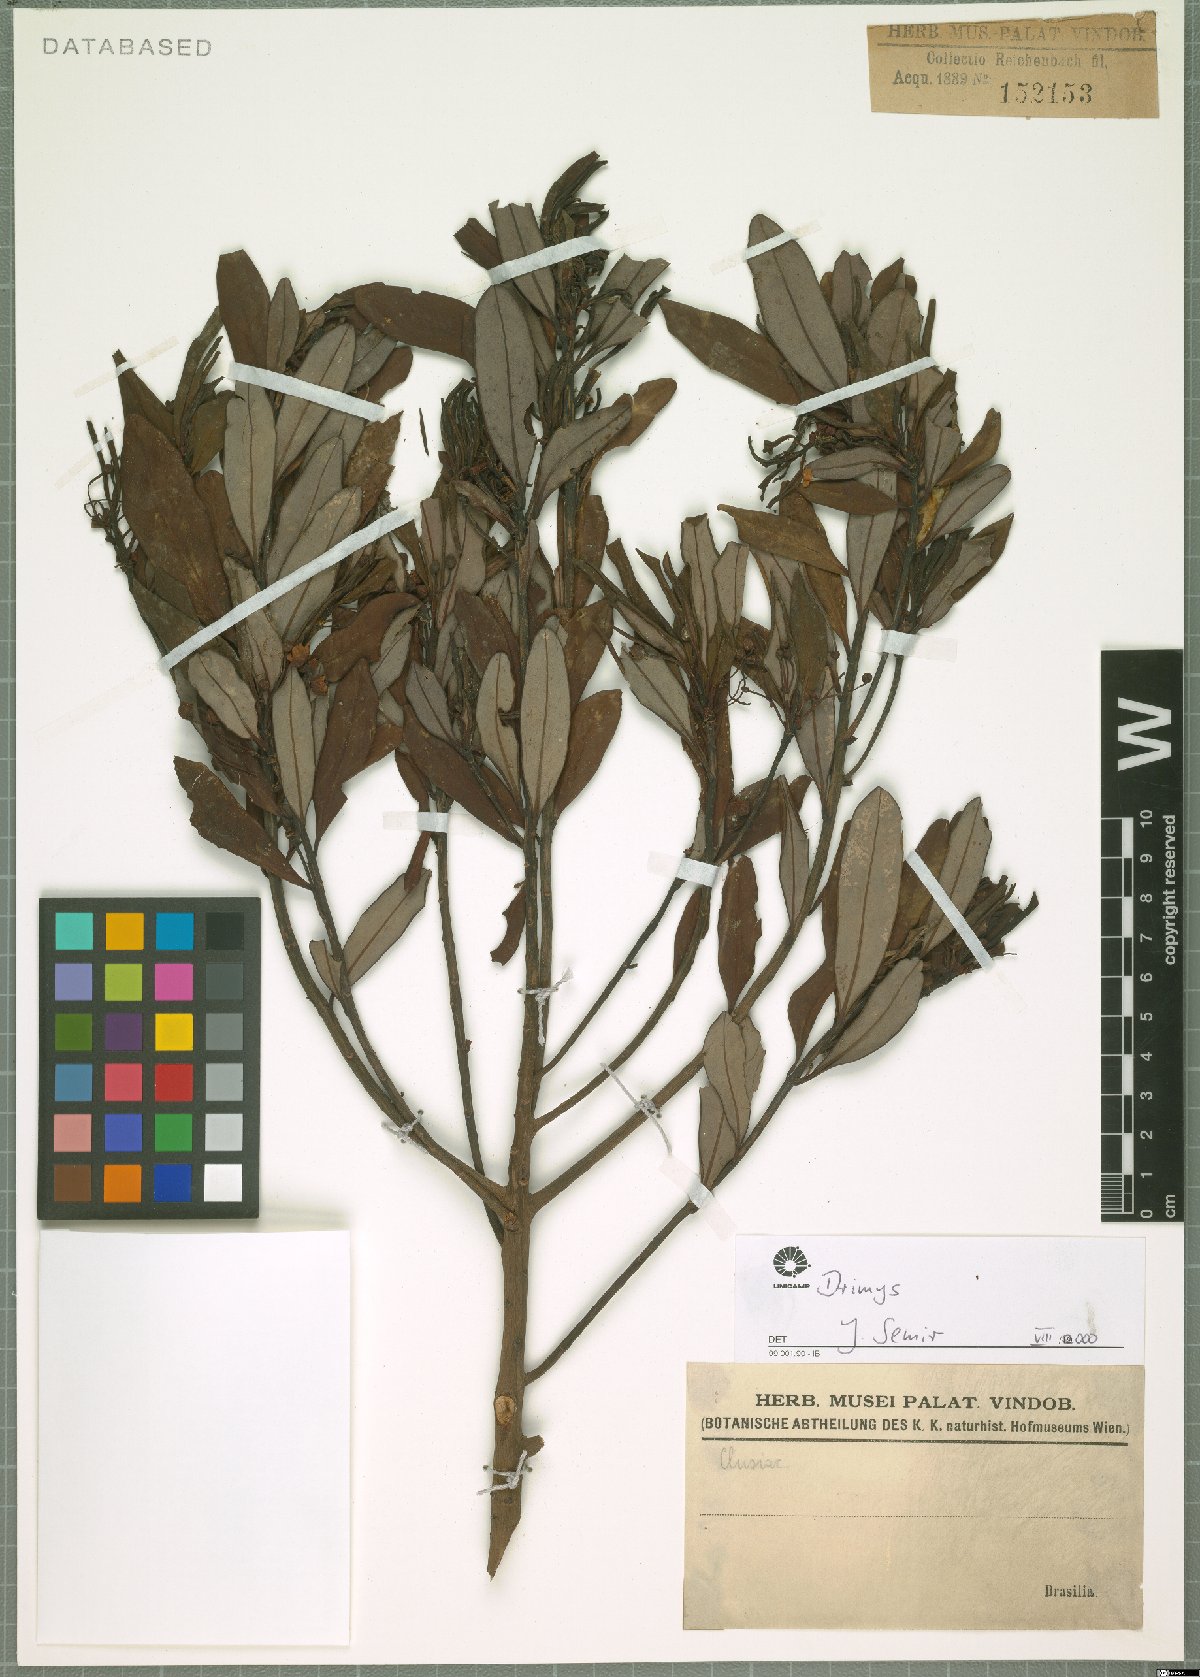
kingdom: Plantae
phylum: Tracheophyta
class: Magnoliopsida
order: Canellales
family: Winteraceae
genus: Drimys
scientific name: Drimys
